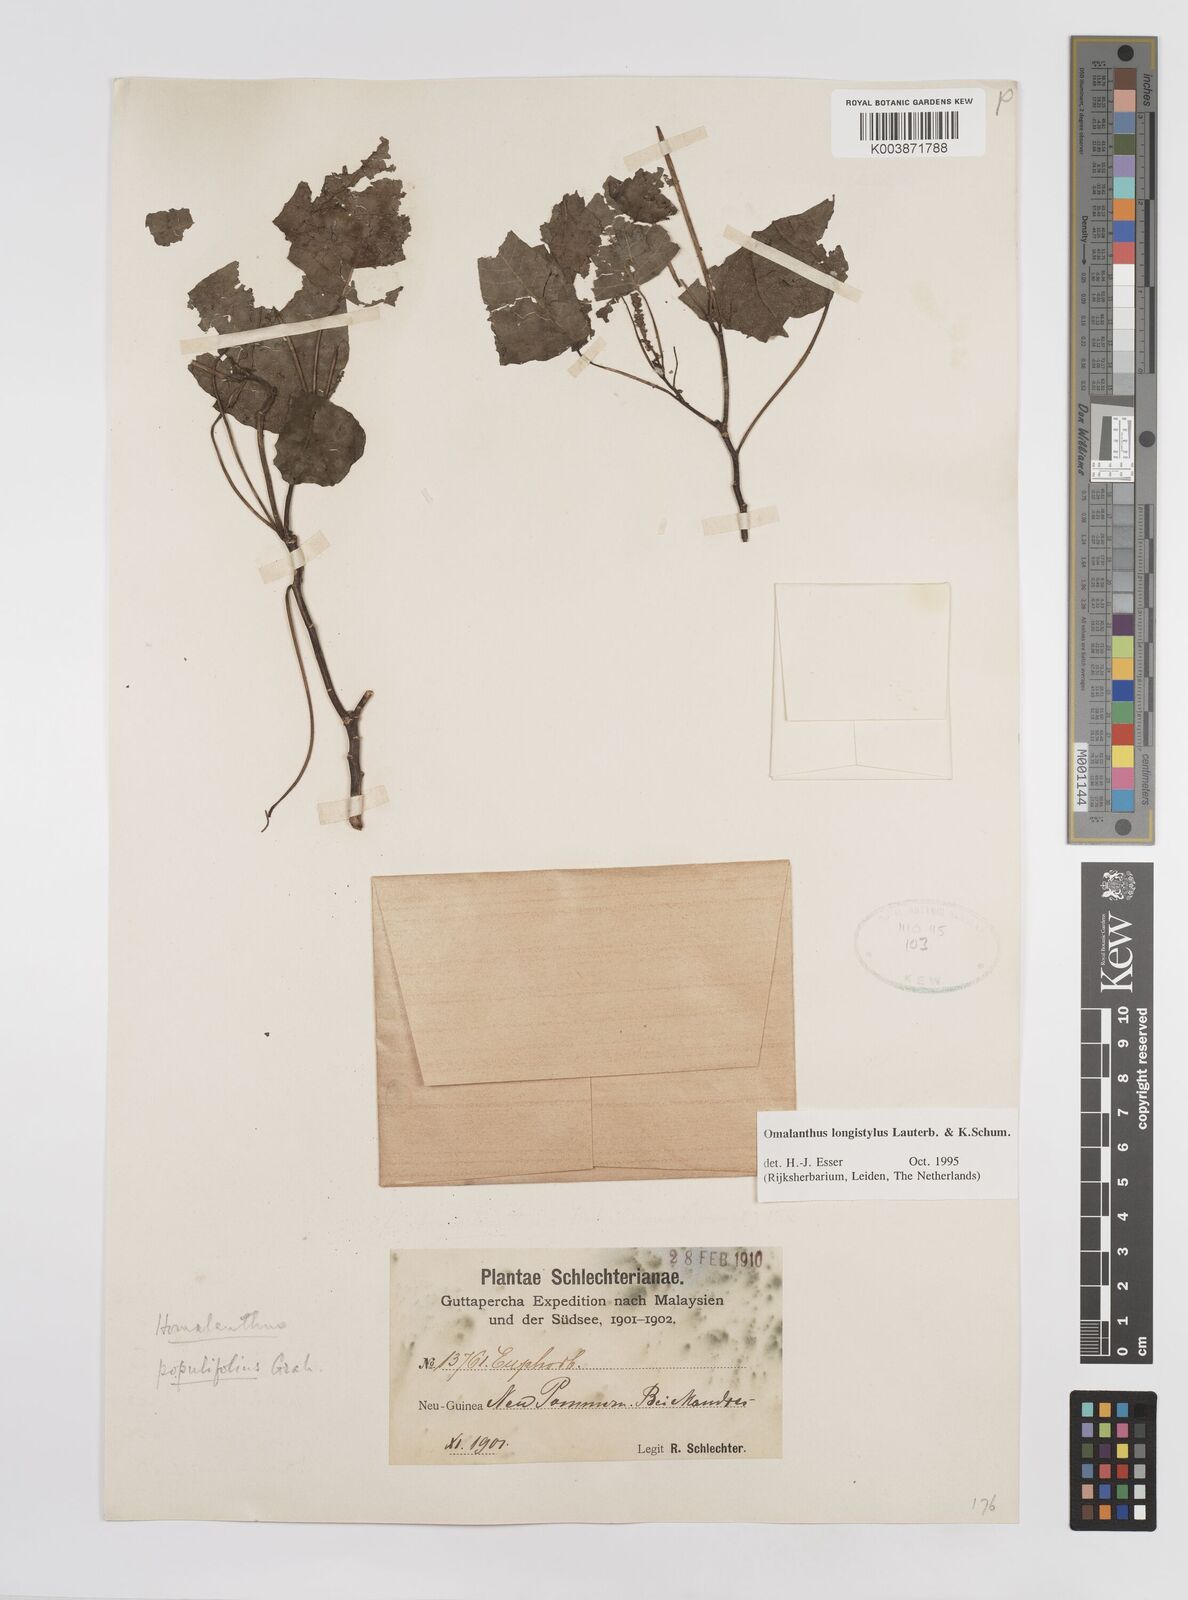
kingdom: Plantae
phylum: Tracheophyta
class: Magnoliopsida
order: Malpighiales
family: Euphorbiaceae
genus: Homalanthus
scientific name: Homalanthus longistylus
